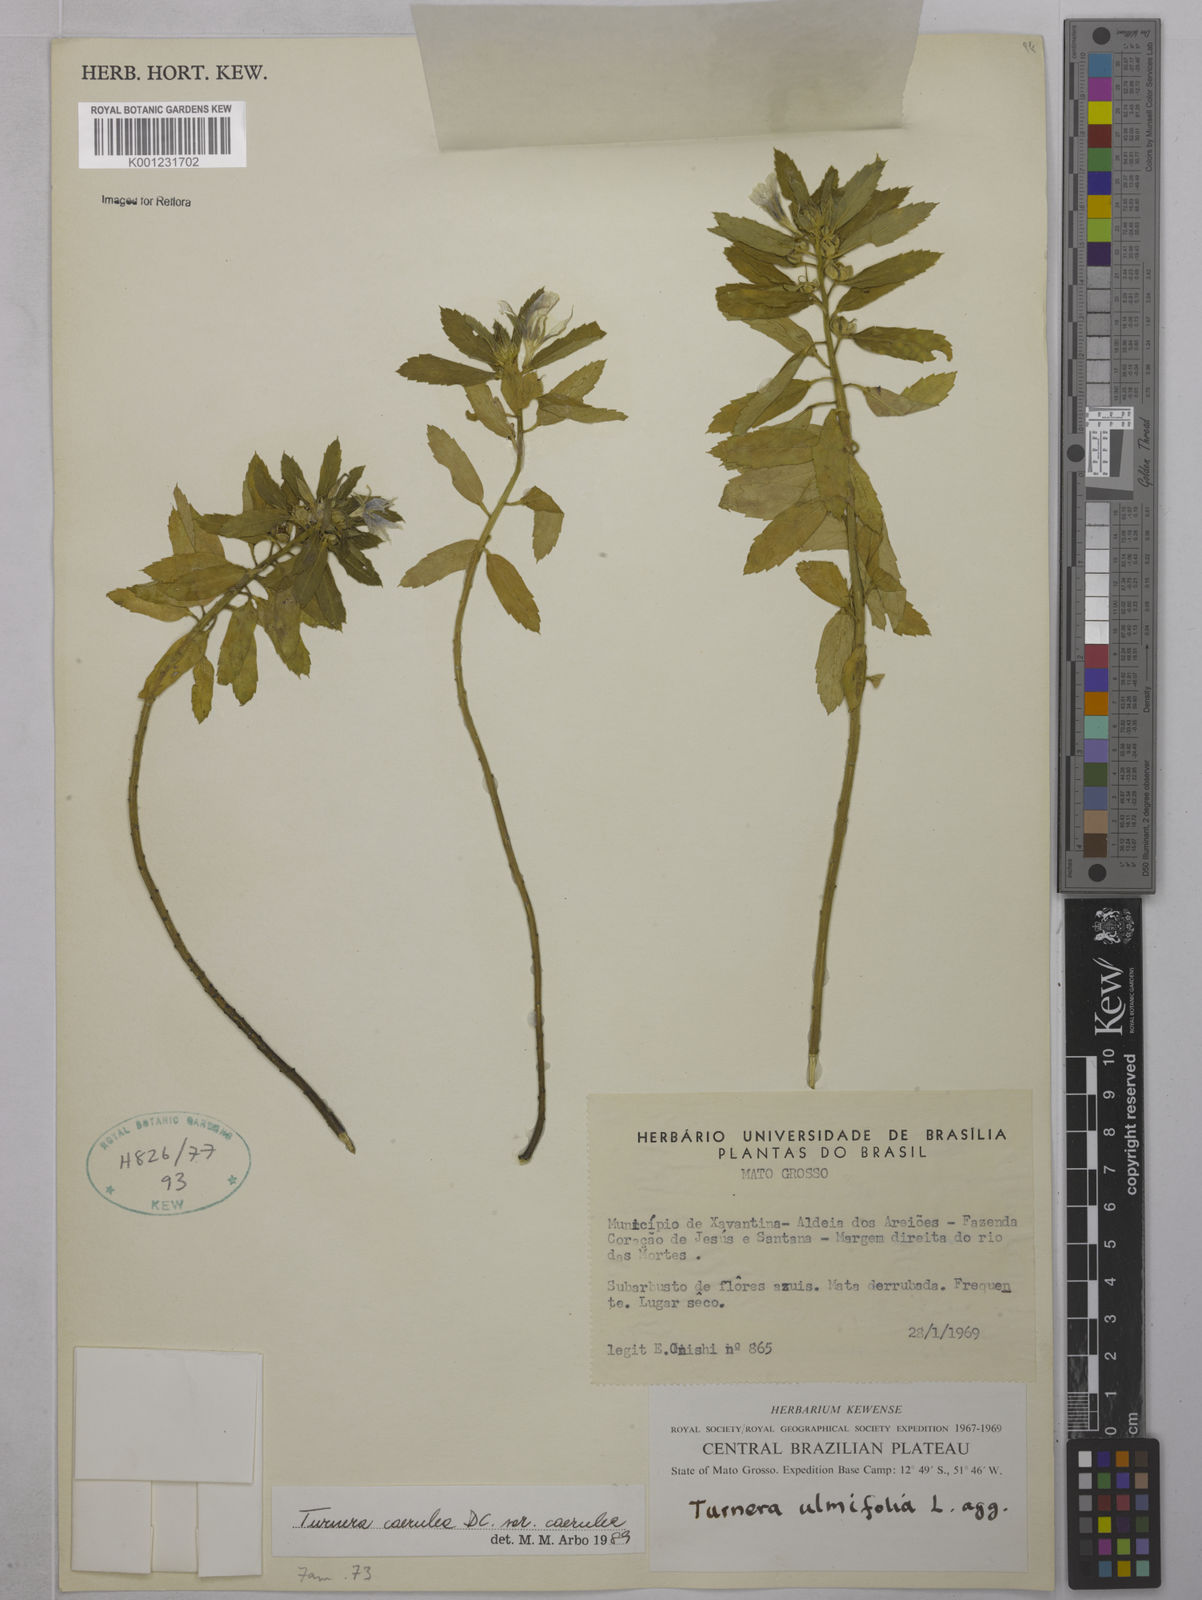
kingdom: Plantae
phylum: Tracheophyta
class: Magnoliopsida
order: Malpighiales
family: Turneraceae
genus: Turnera
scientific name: Turnera
